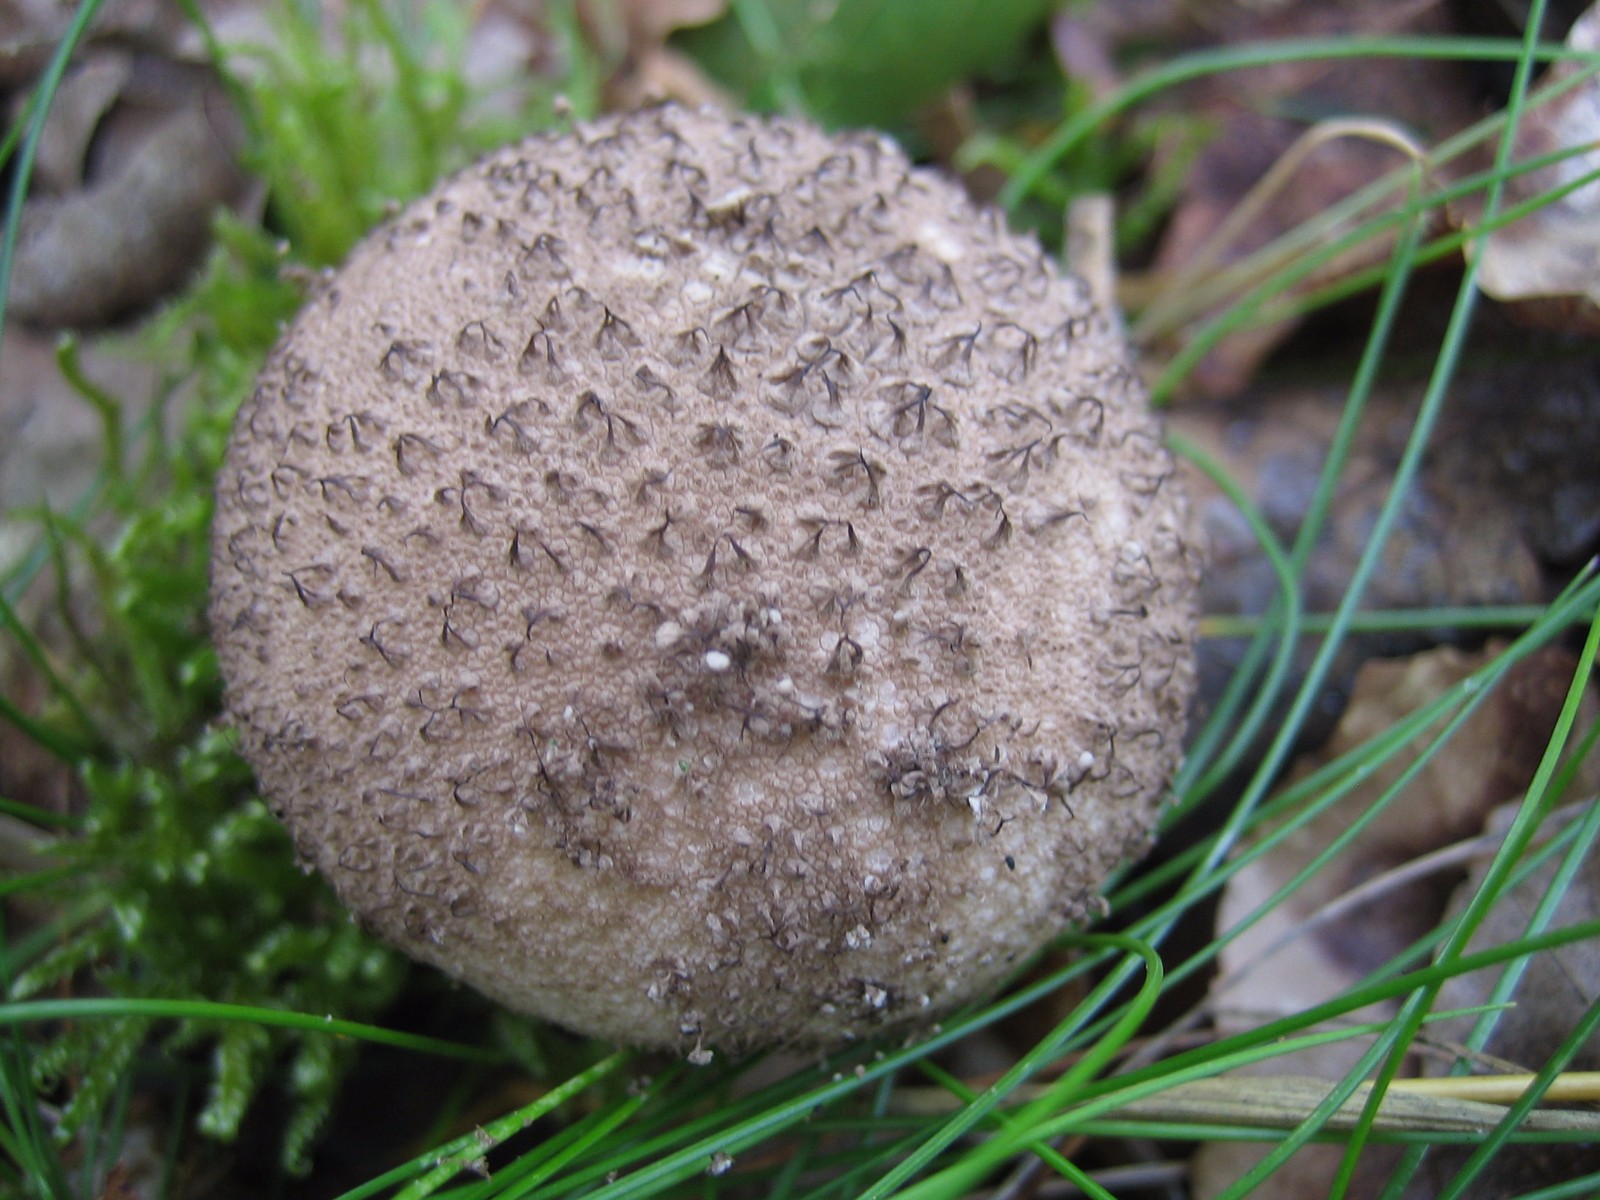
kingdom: Fungi
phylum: Basidiomycota
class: Agaricomycetes
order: Agaricales
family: Lycoperdaceae
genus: Lycoperdon
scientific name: Lycoperdon nigrescens
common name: sortagtig støvbold
